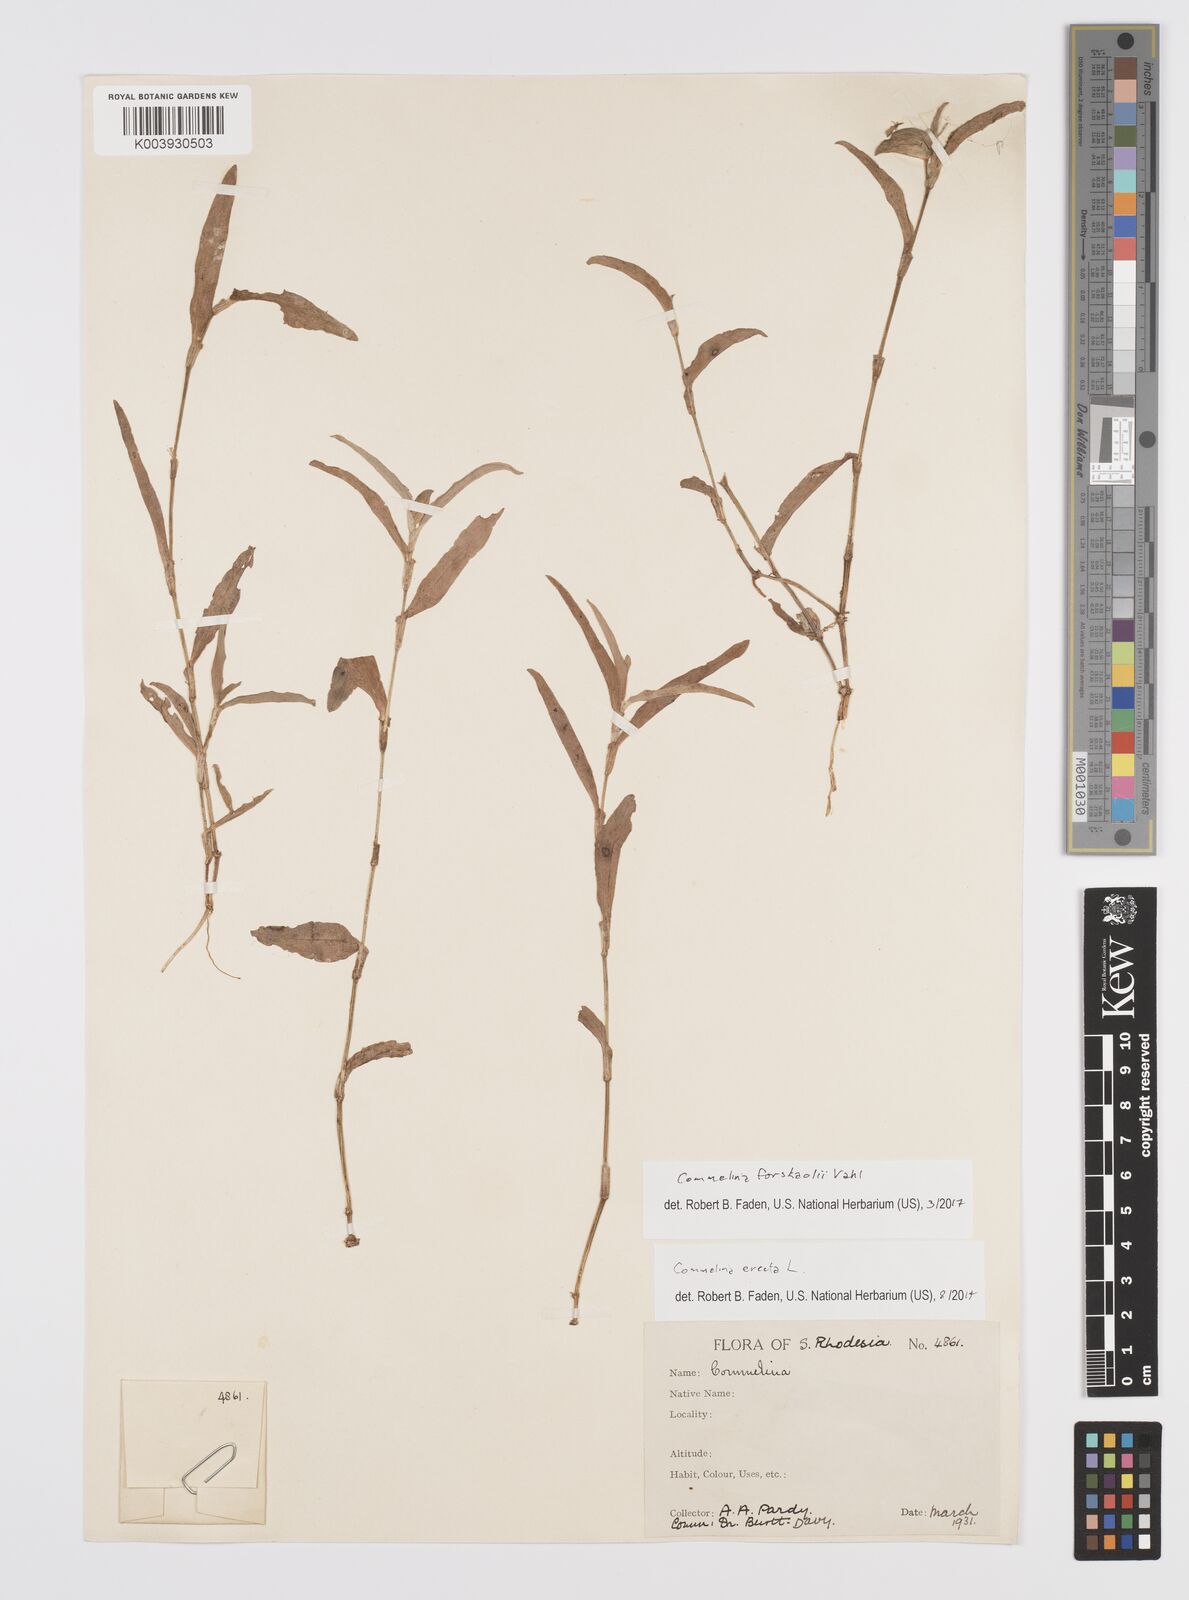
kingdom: Plantae
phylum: Tracheophyta
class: Liliopsida
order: Commelinales
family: Commelinaceae
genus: Commelina
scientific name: Commelina forskaolii
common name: Rat's ear
